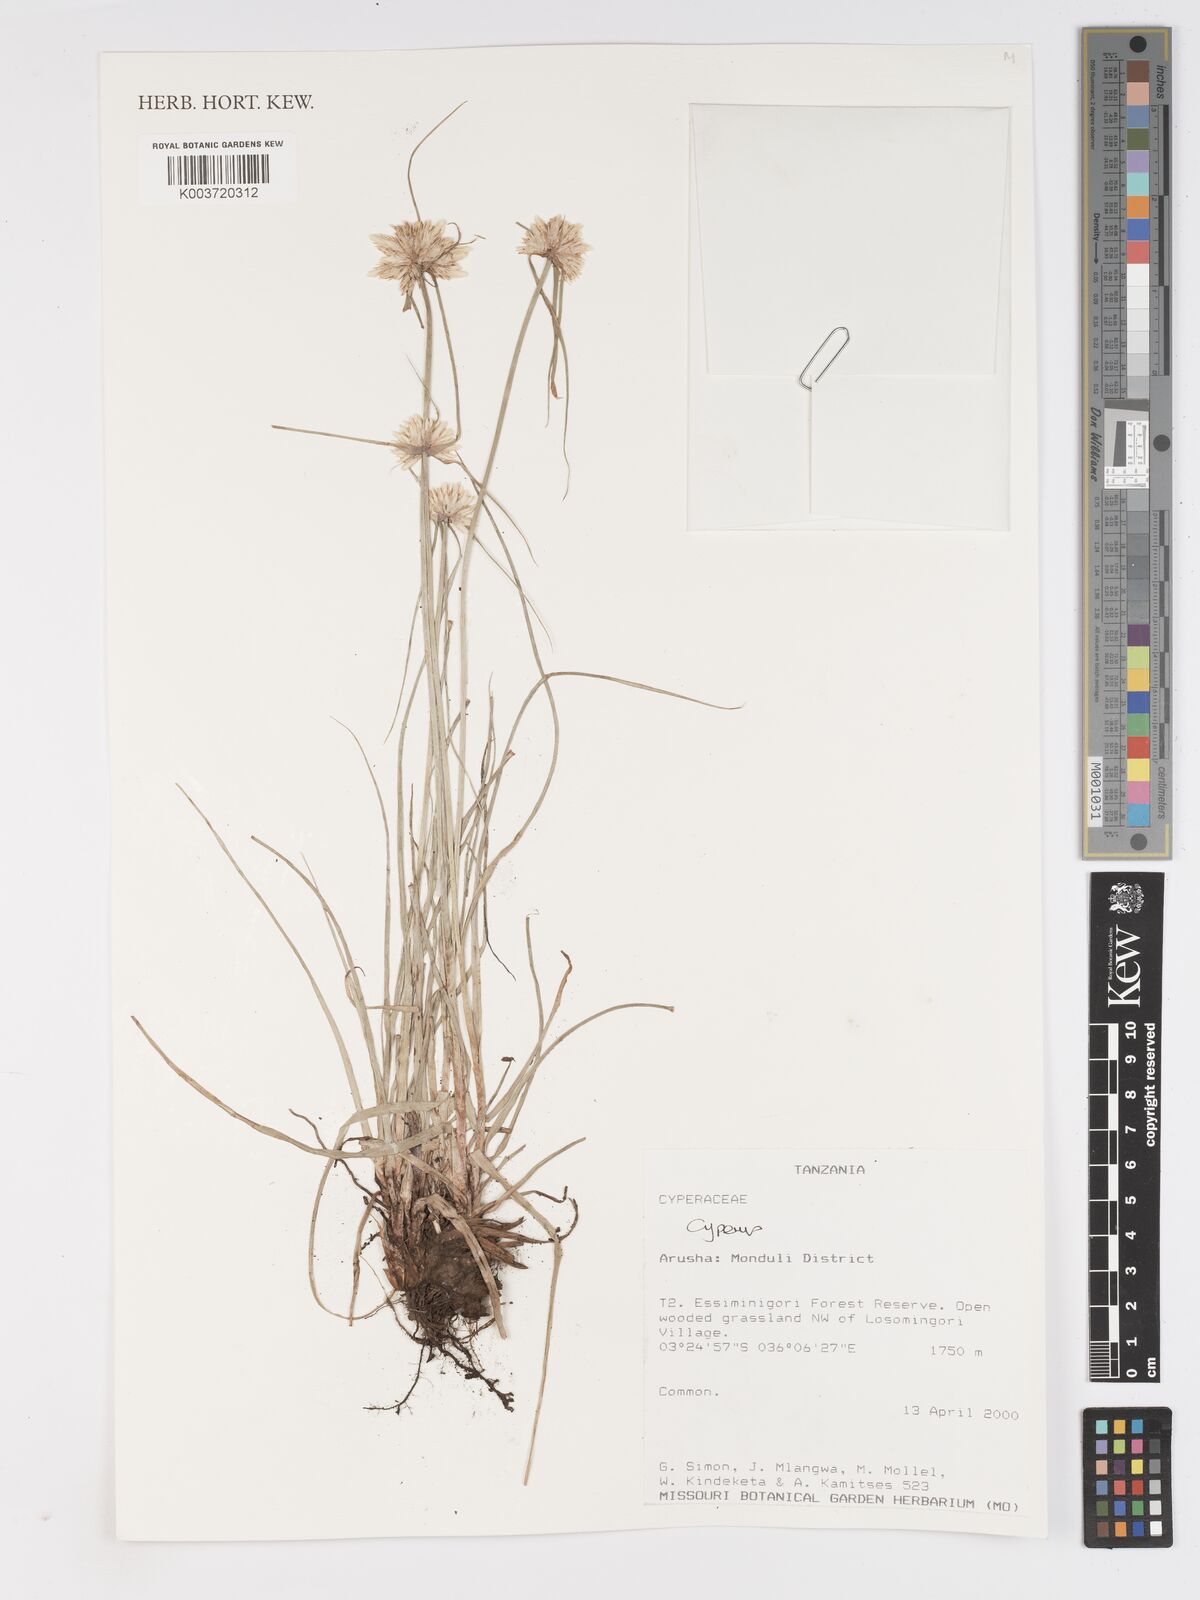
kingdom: Plantae
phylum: Tracheophyta
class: Liliopsida
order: Poales
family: Cyperaceae
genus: Cyperus
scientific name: Cyperus
